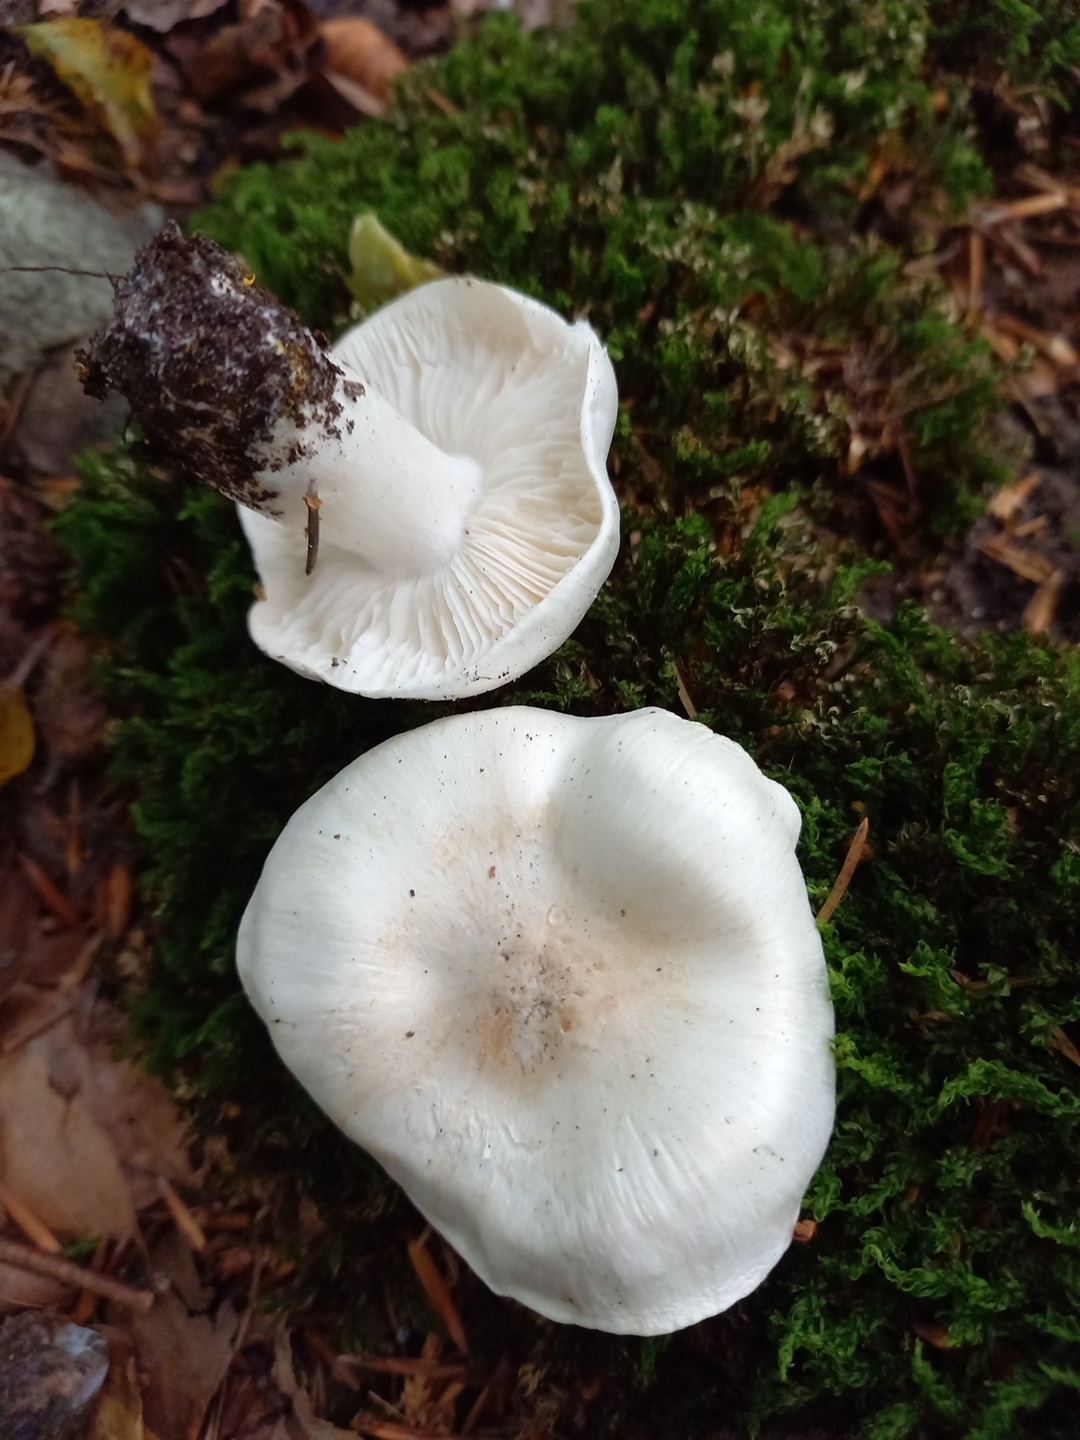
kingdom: Fungi
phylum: Basidiomycota
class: Agaricomycetes
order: Agaricales
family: Tricholomataceae
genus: Tricholoma
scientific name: Tricholoma columbetta
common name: silke-ridderhat
